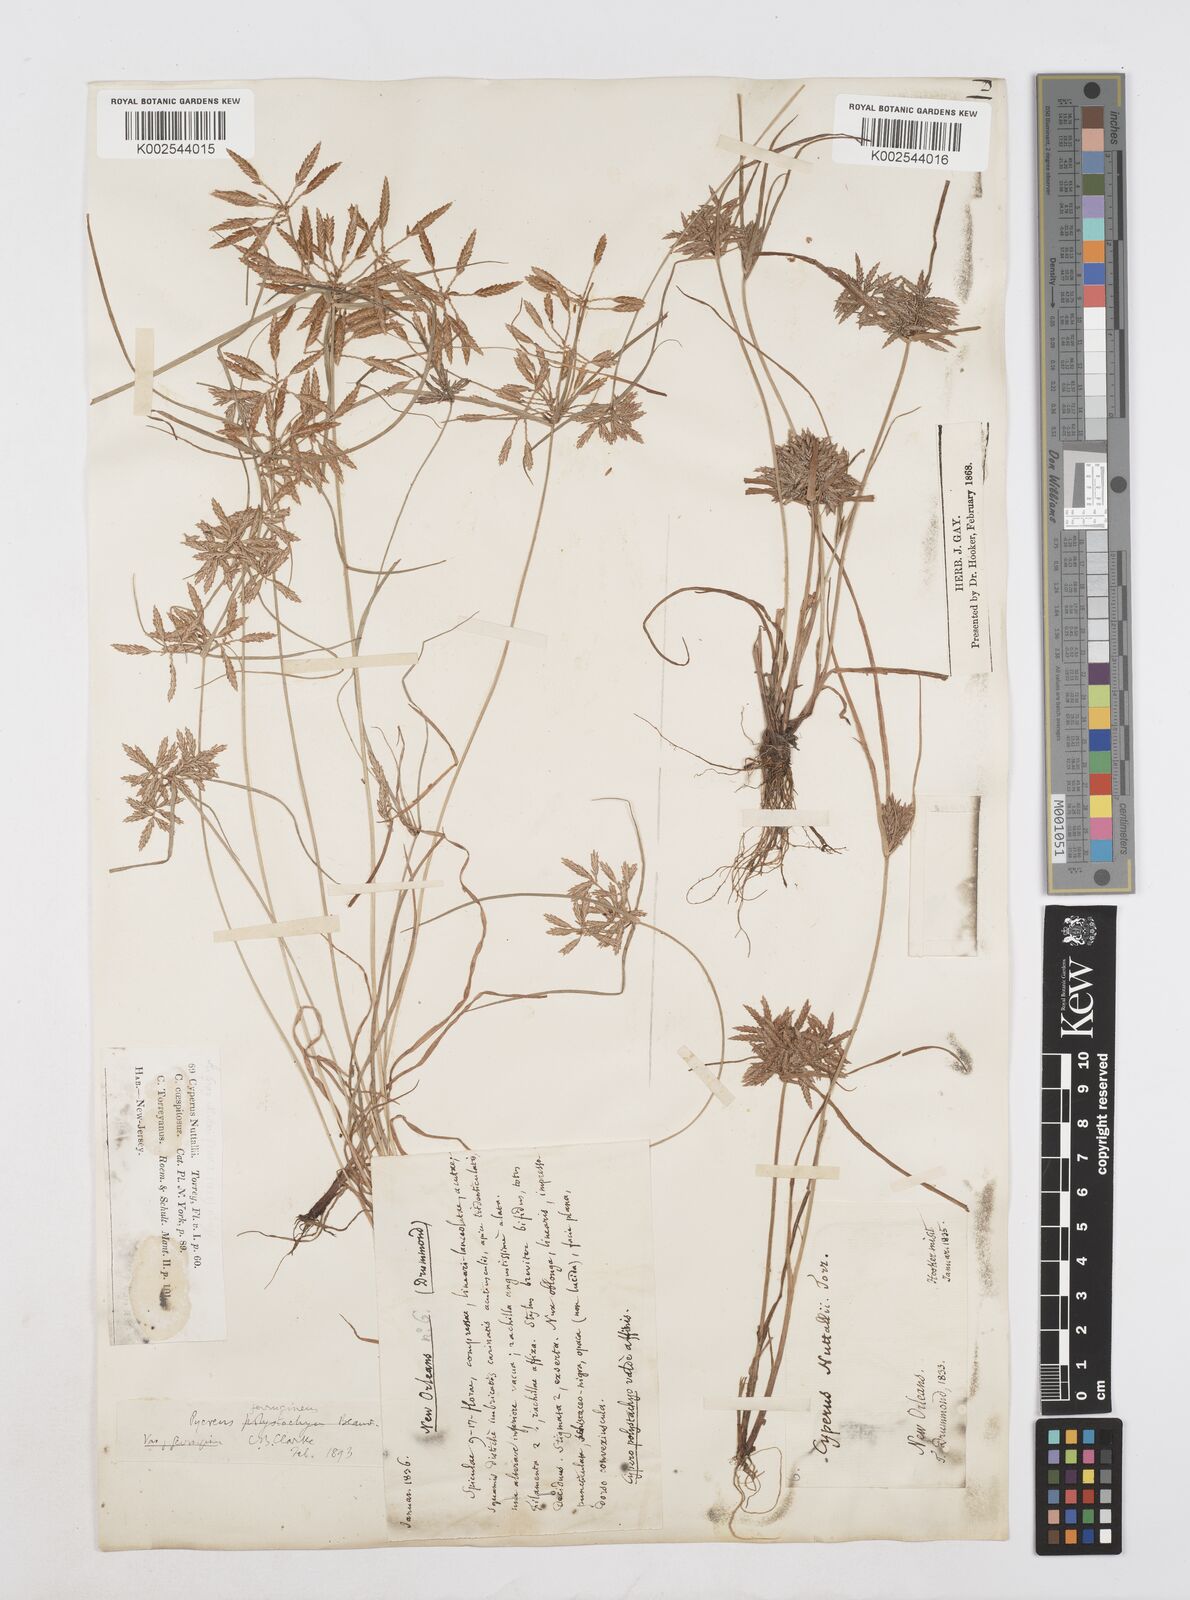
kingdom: Plantae
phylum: Tracheophyta
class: Liliopsida
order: Poales
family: Cyperaceae
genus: Cyperus
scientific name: Cyperus filicinus
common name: Fern flatsedge
